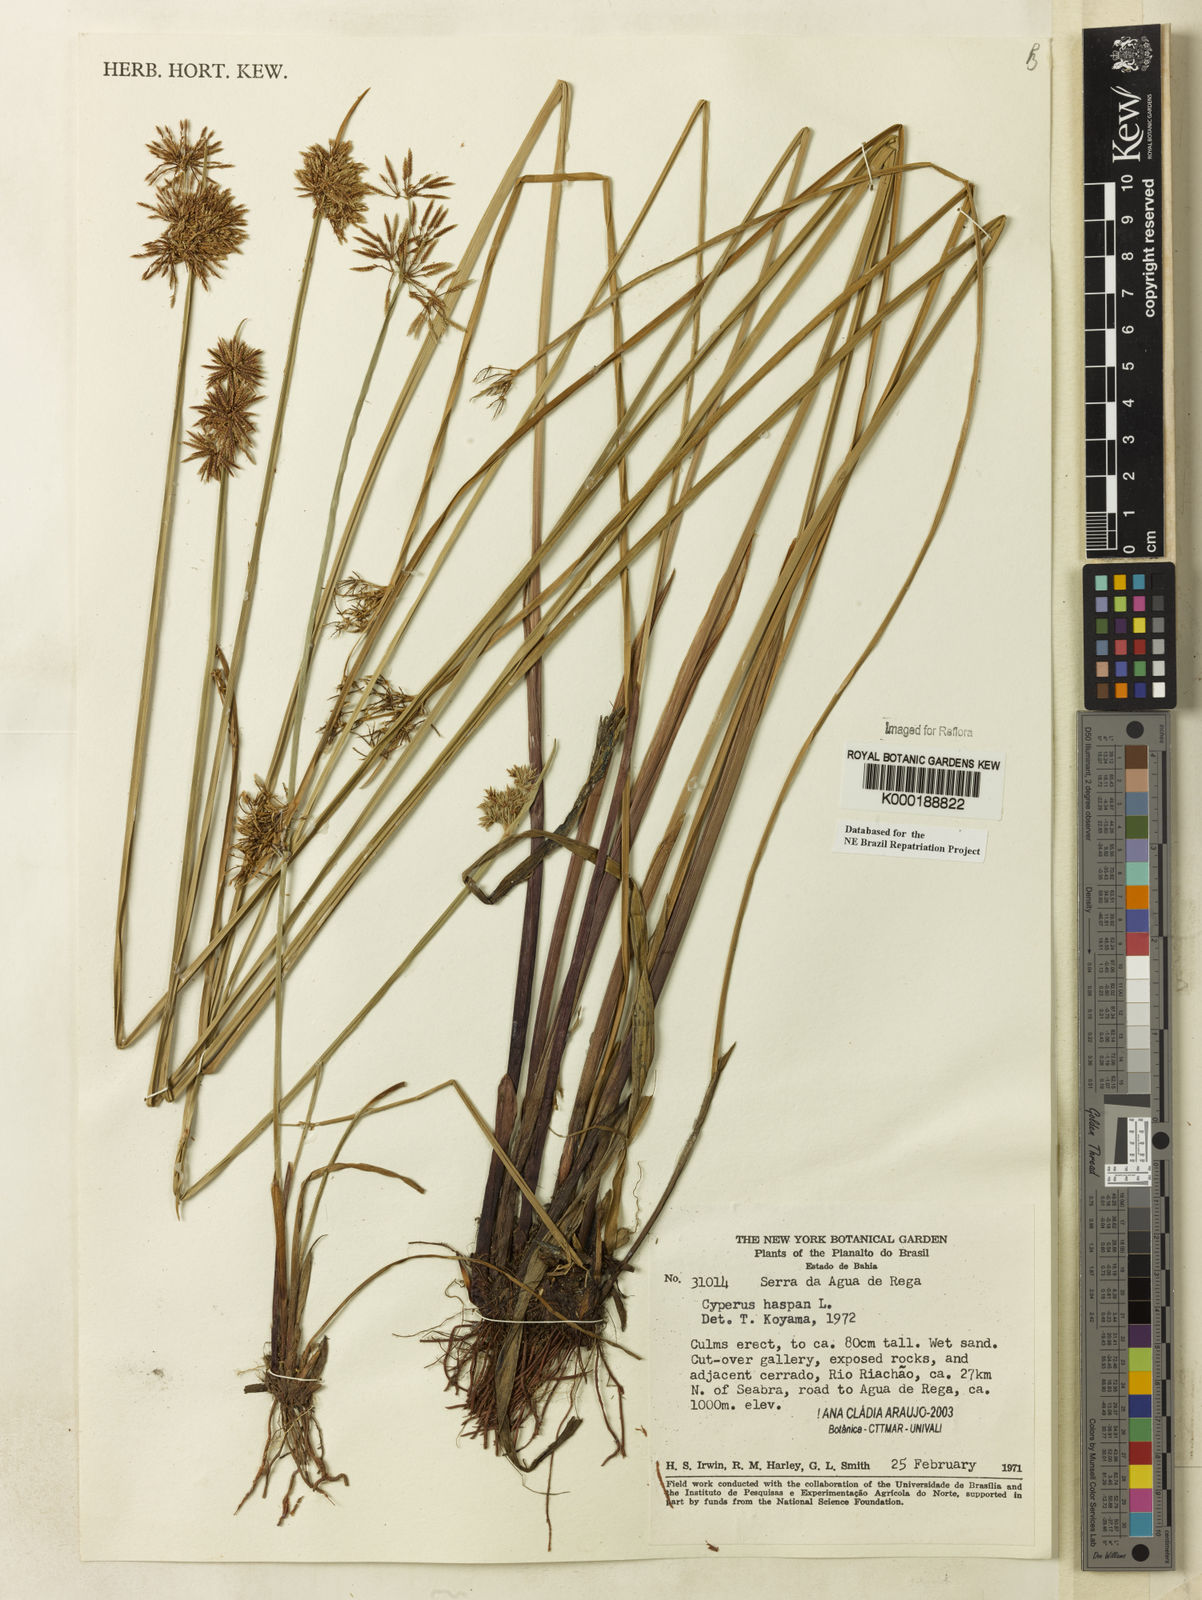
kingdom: Plantae
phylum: Tracheophyta
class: Liliopsida
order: Poales
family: Cyperaceae
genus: Cyperus
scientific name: Cyperus haspan
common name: Haspan flatsedge
